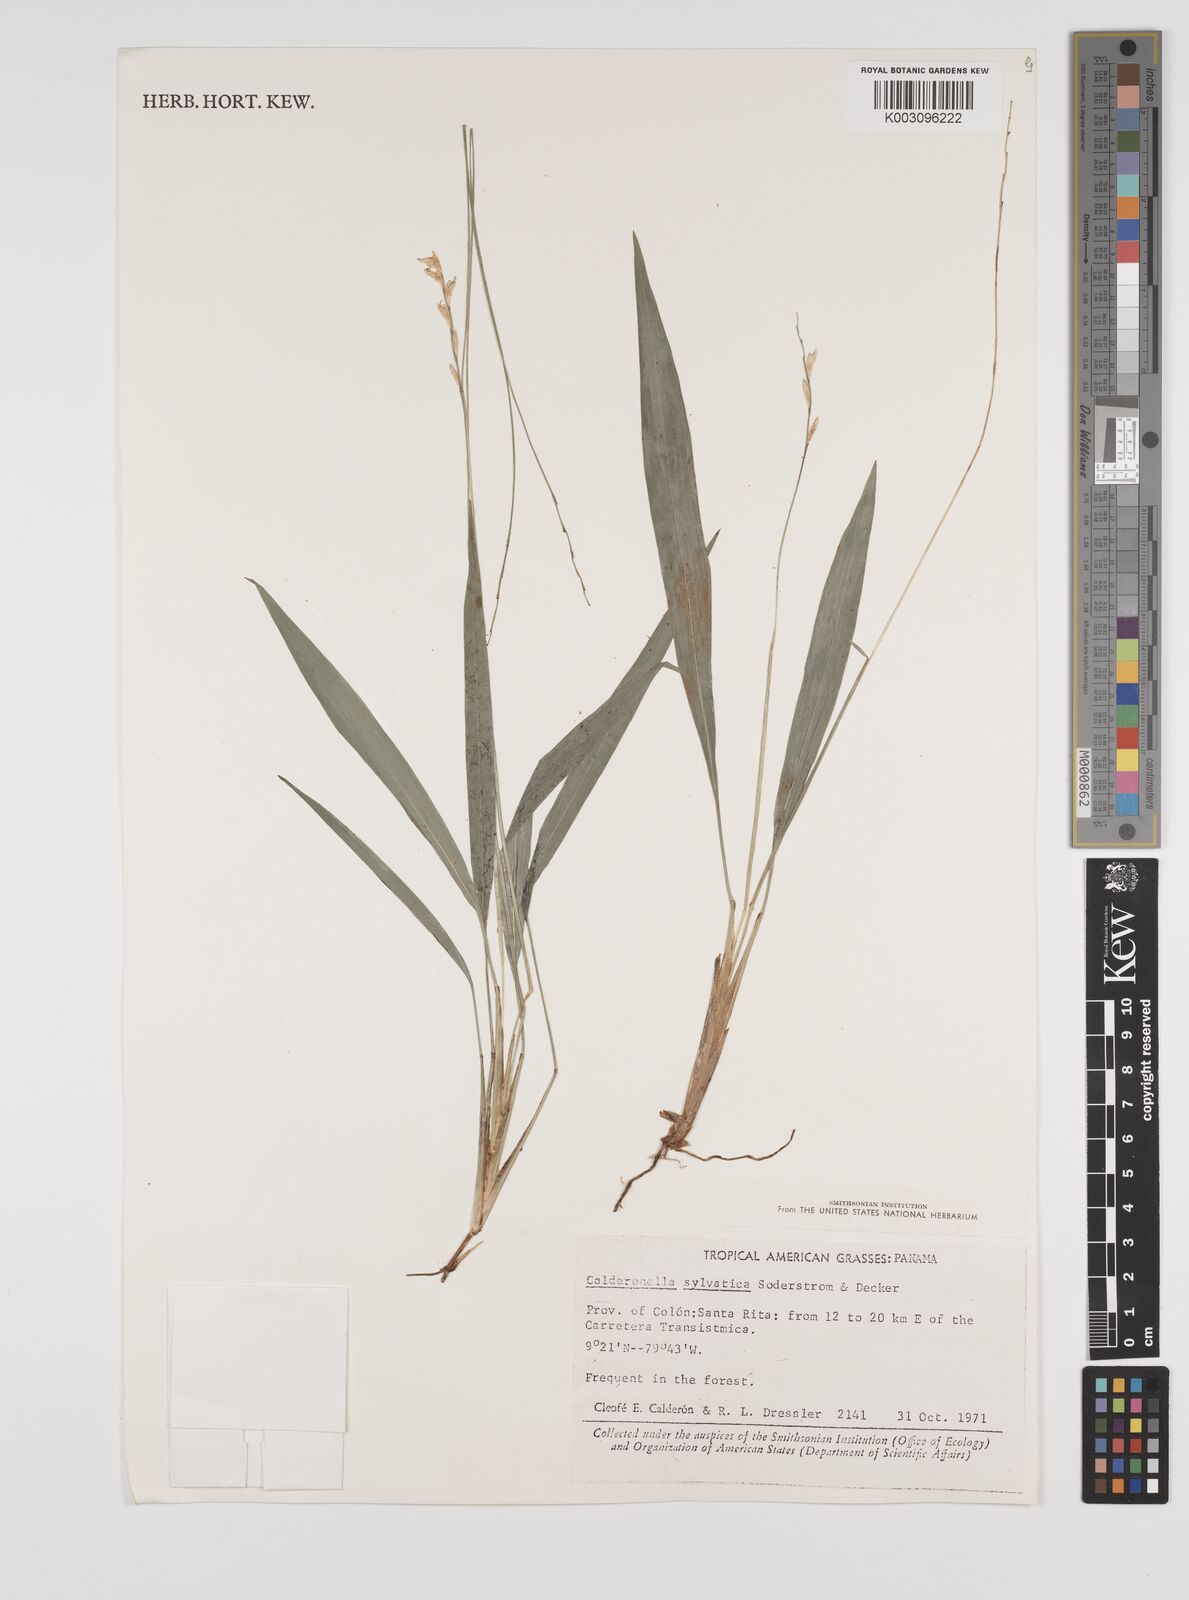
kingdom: Plantae
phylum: Tracheophyta
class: Liliopsida
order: Poales
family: Poaceae
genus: Zeugites
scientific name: Zeugites sylvaticus
